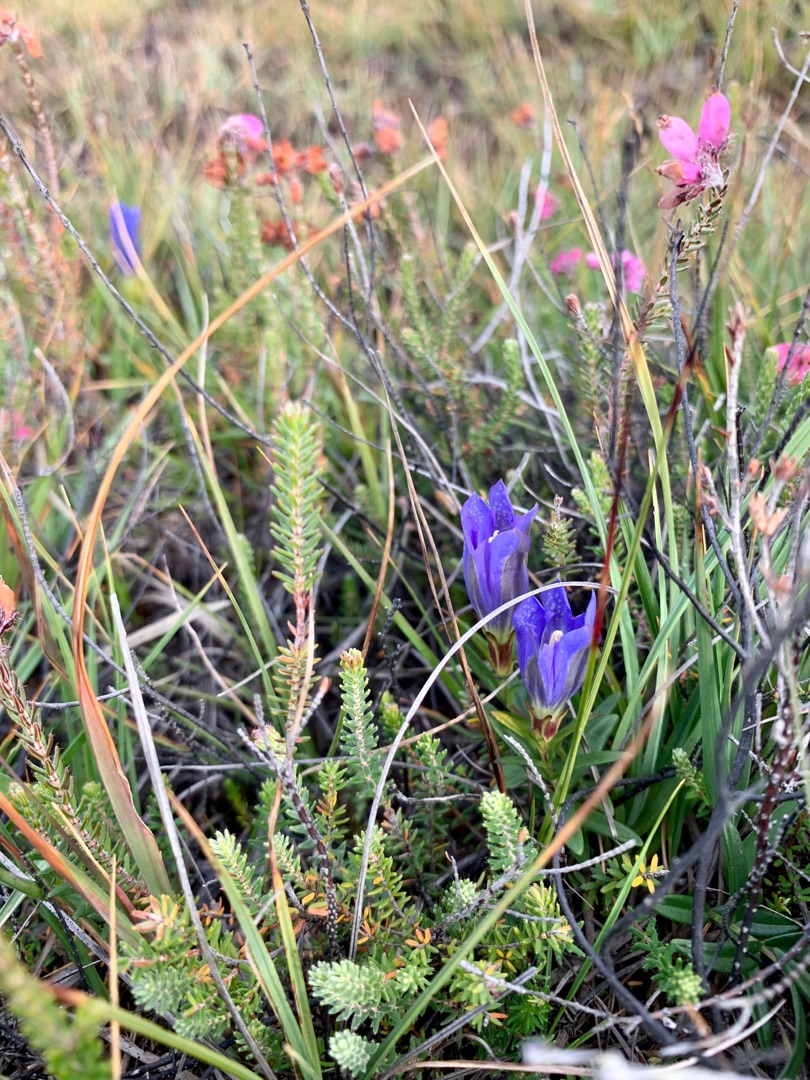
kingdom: Plantae
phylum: Tracheophyta
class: Magnoliopsida
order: Gentianales
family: Gentianaceae
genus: Gentiana
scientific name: Gentiana pneumonanthe
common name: Klokke-ensian
